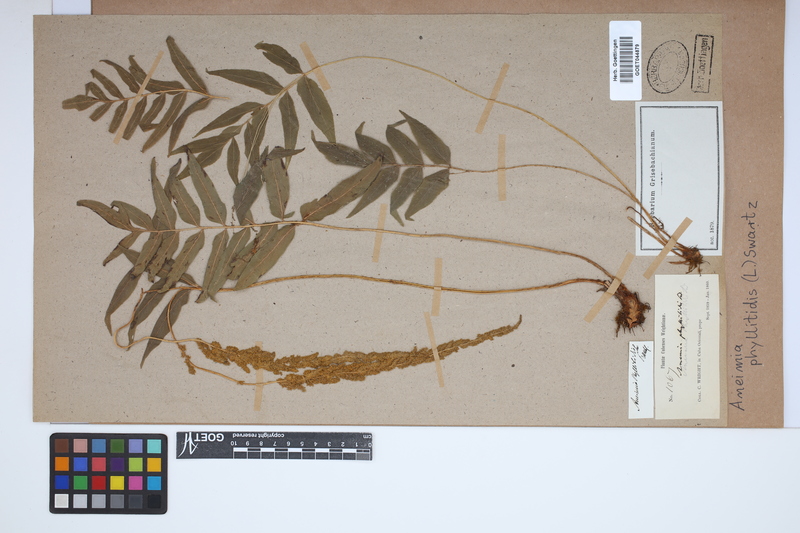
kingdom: Plantae
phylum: Tracheophyta
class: Polypodiopsida
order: Schizaeales
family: Anemiaceae
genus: Anemia
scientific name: Anemia phyllitidis
